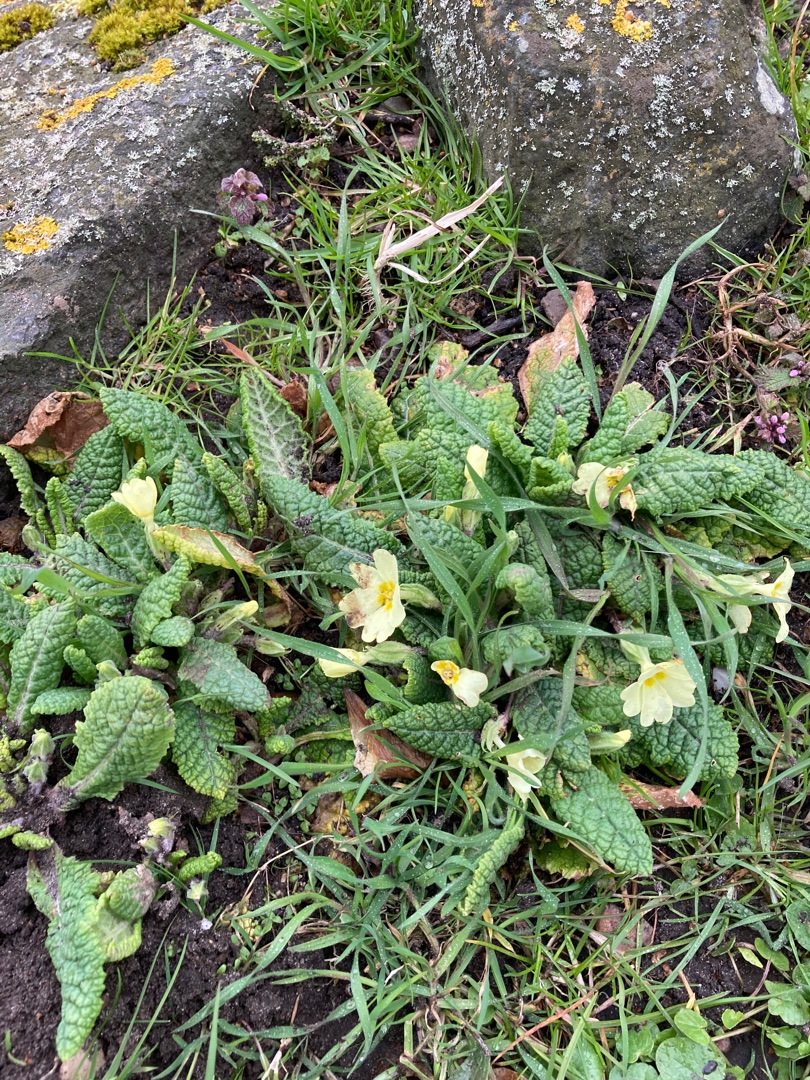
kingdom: Plantae
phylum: Tracheophyta
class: Magnoliopsida
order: Ericales
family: Primulaceae
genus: Primula
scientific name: Primula vulgaris
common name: Storblomstret kodriver
